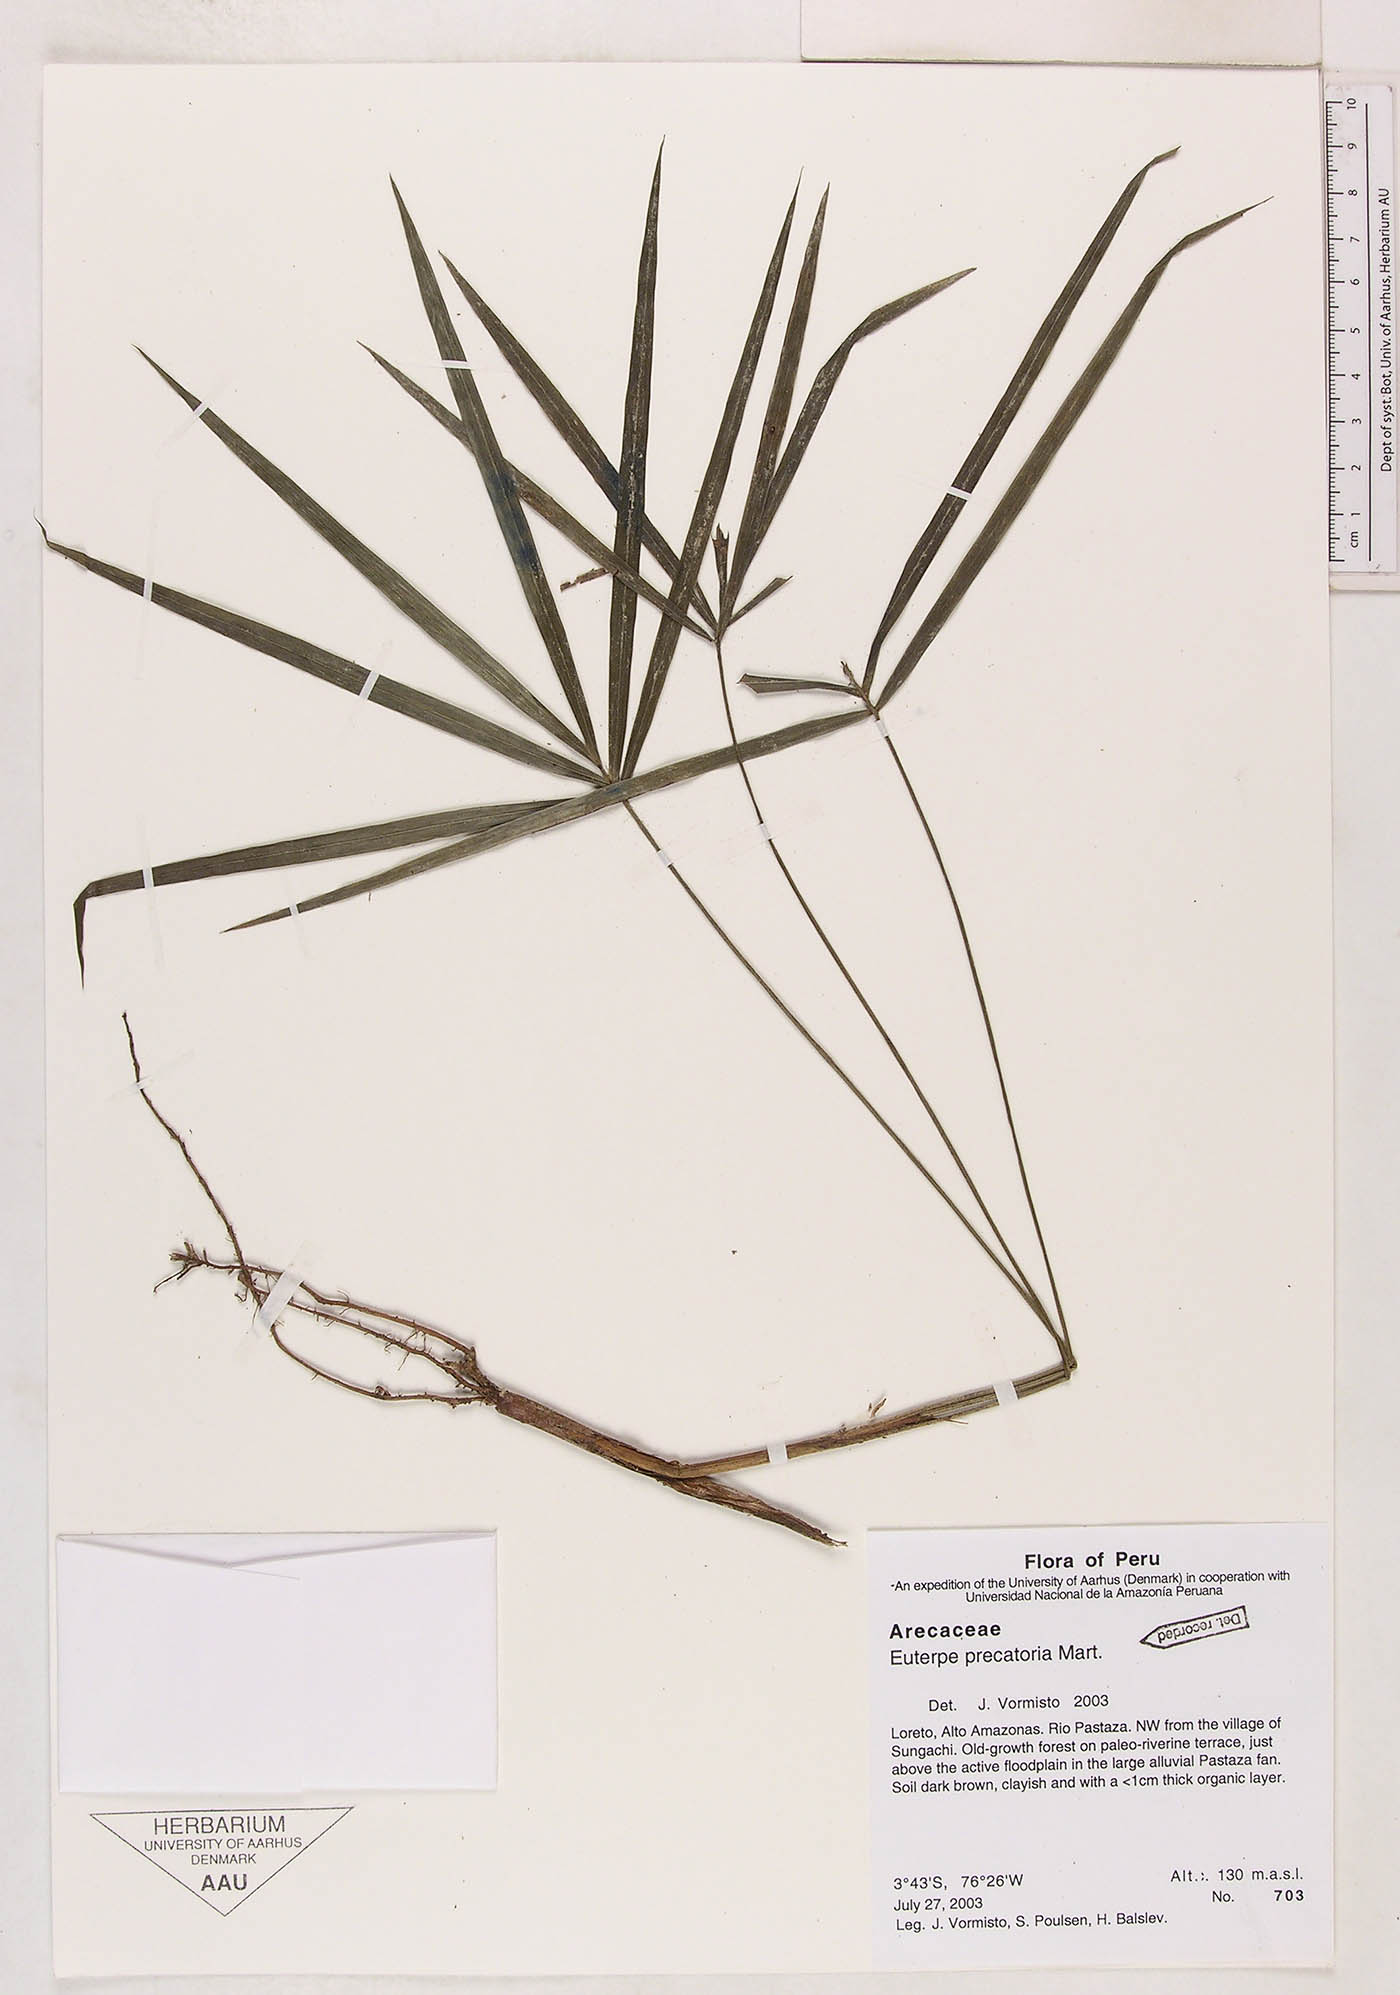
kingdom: Plantae
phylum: Tracheophyta
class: Liliopsida
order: Arecales
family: Arecaceae
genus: Euterpe
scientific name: Euterpe precatoria
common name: Mountain-cabbage
